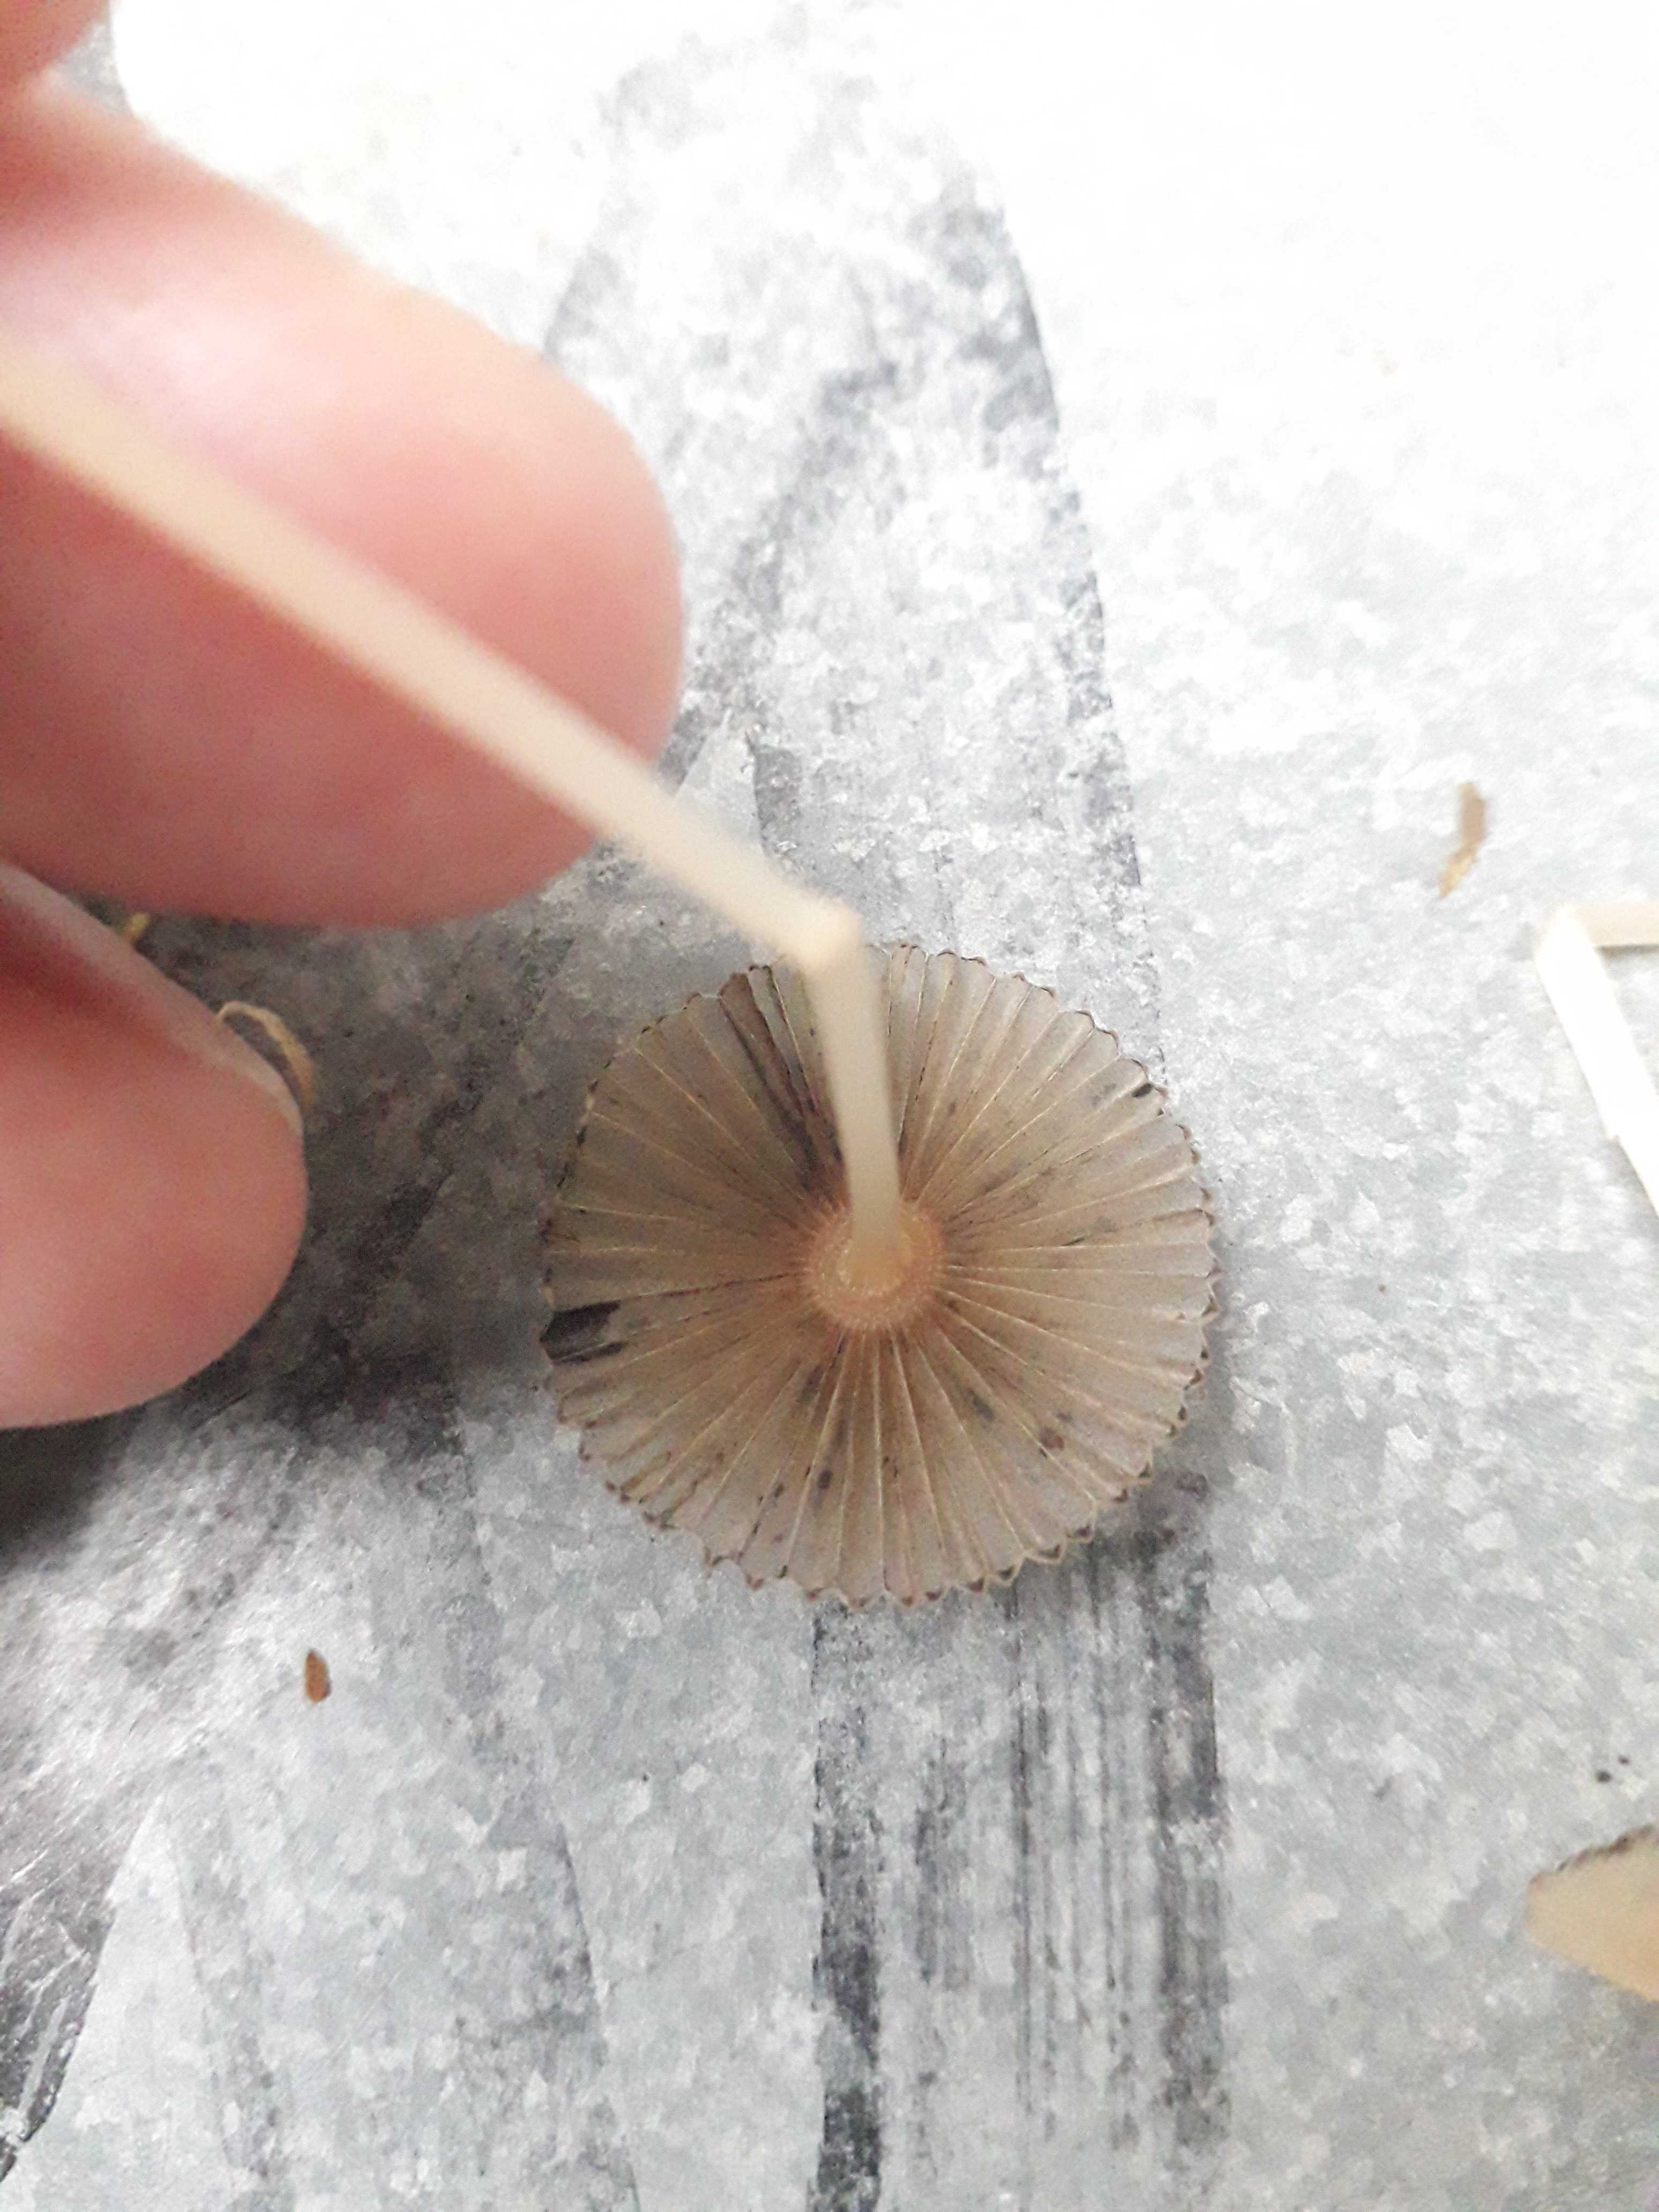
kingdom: Fungi
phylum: Basidiomycota
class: Agaricomycetes
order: Agaricales
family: Psathyrellaceae
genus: Parasola
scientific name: Parasola
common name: hjulhat
